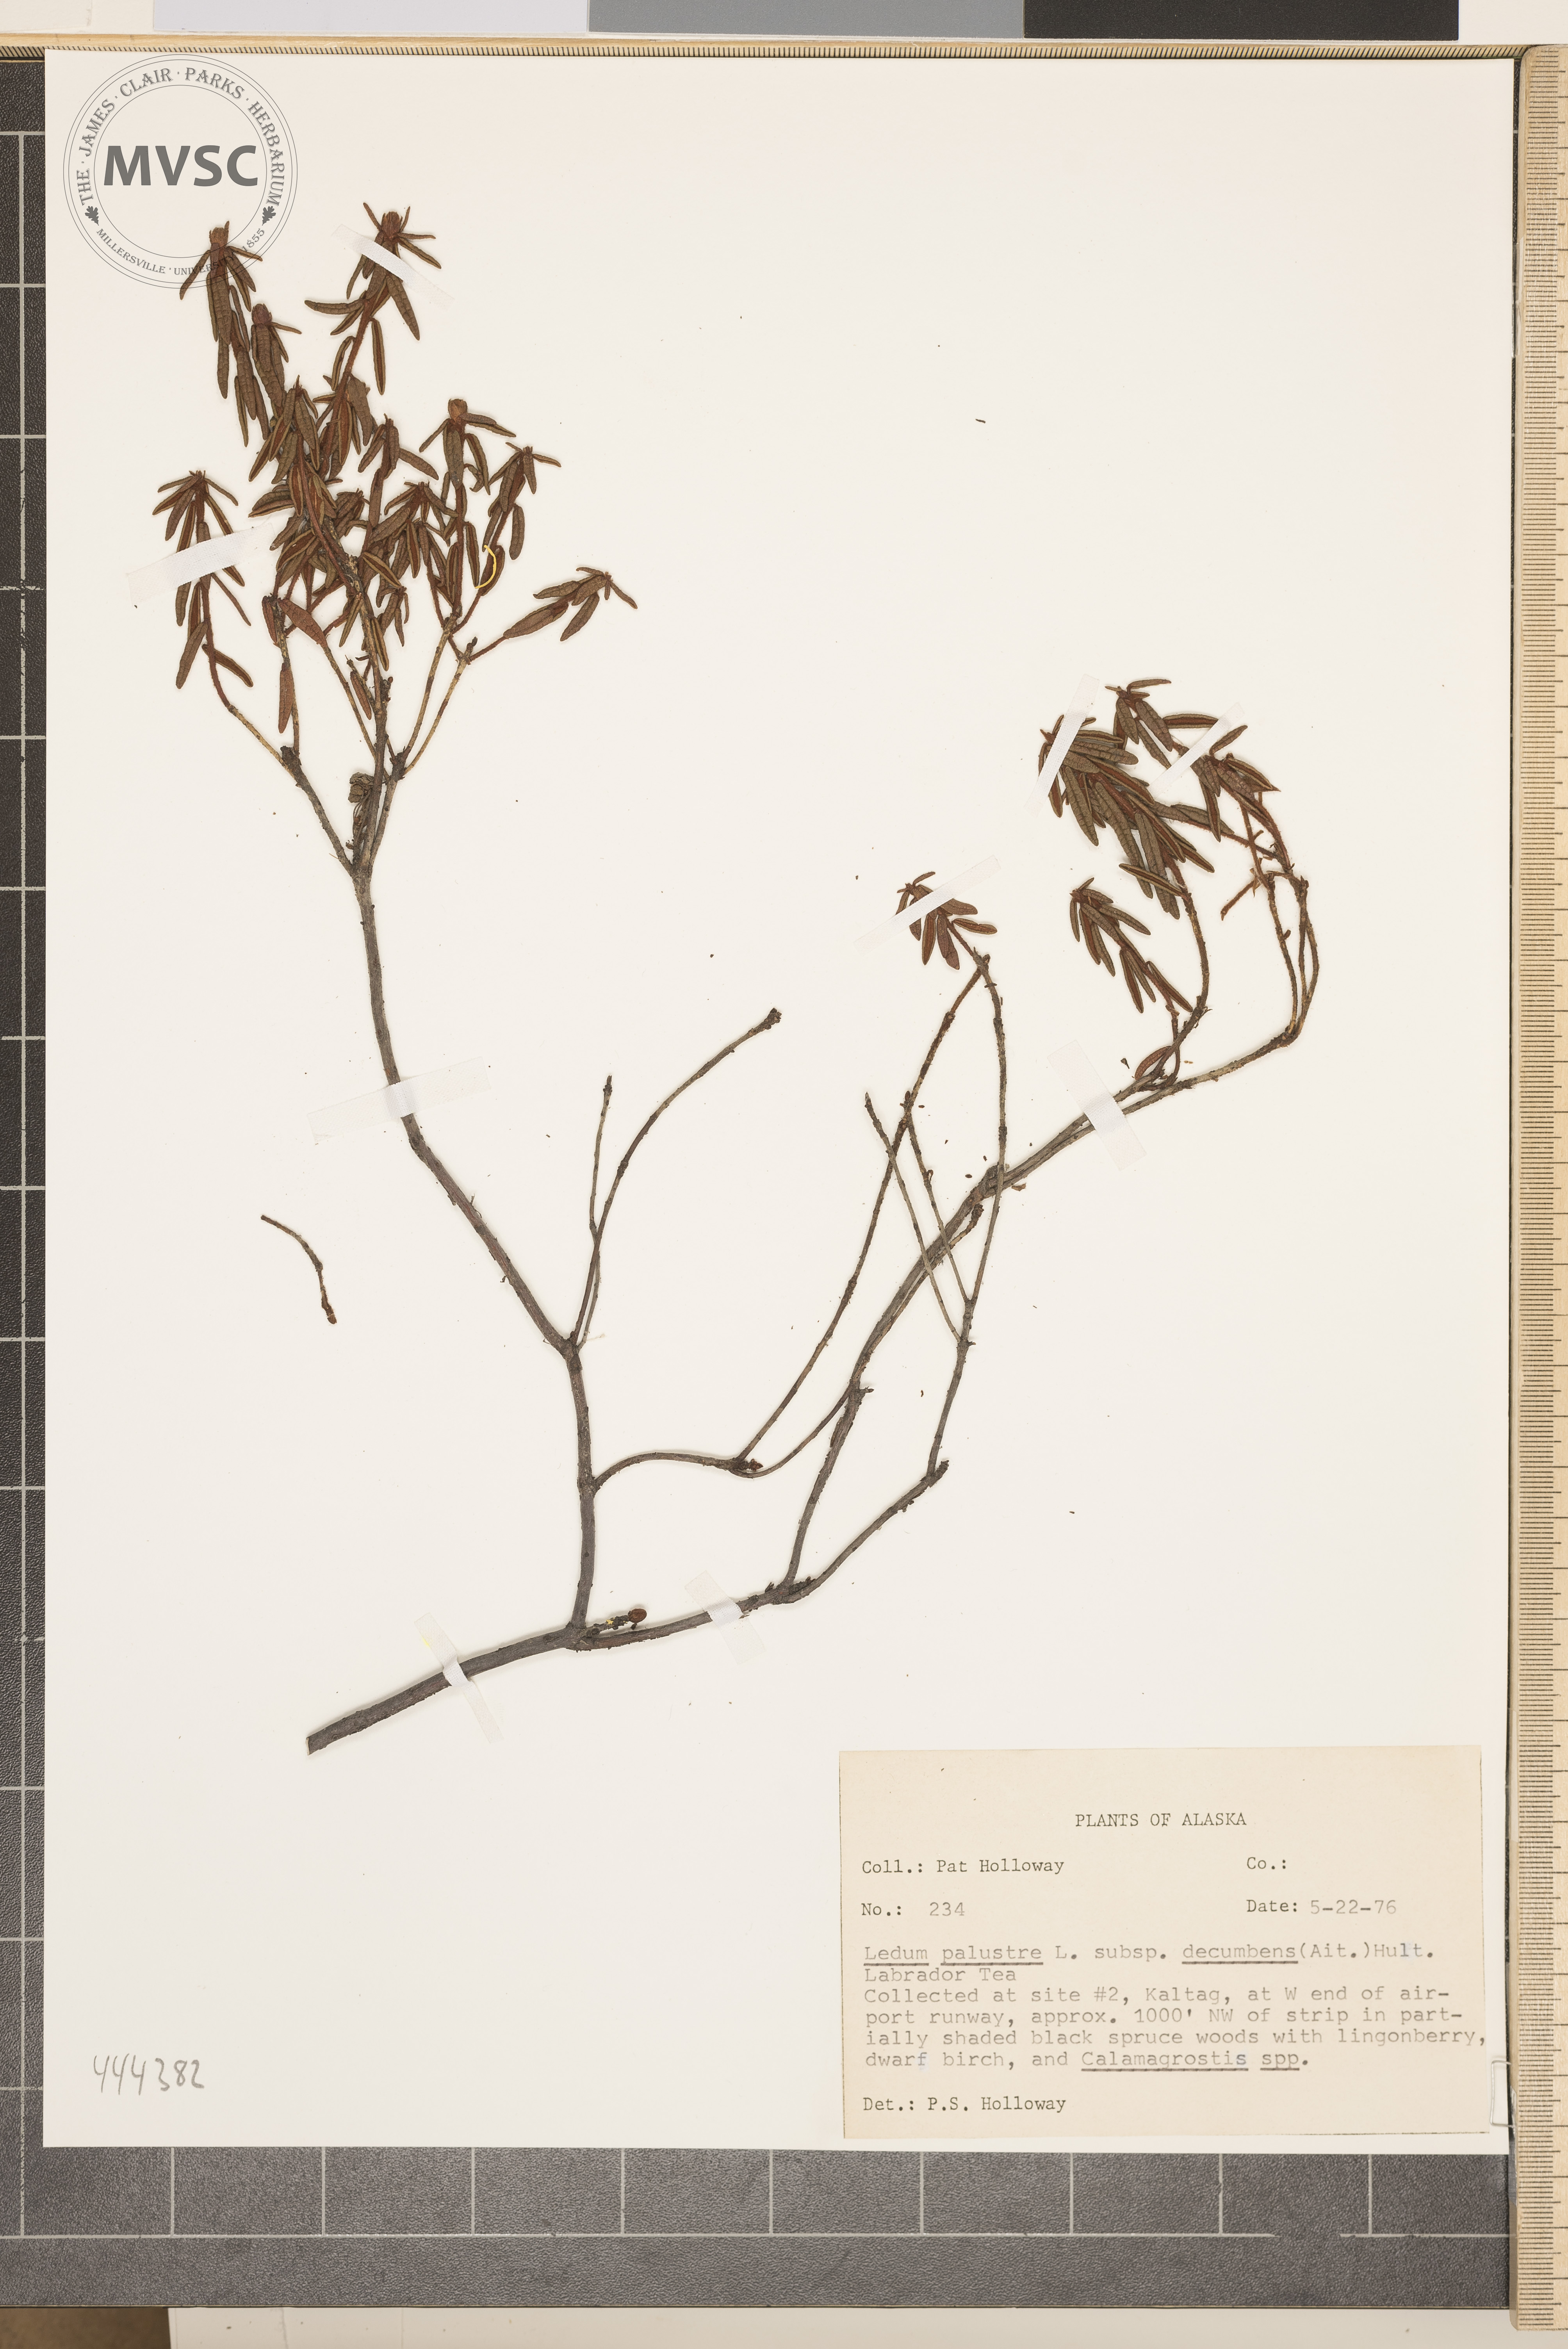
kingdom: Plantae
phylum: Tracheophyta
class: Magnoliopsida
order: Ericales
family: Ericaceae
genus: Rhododendron
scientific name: Rhododendron
